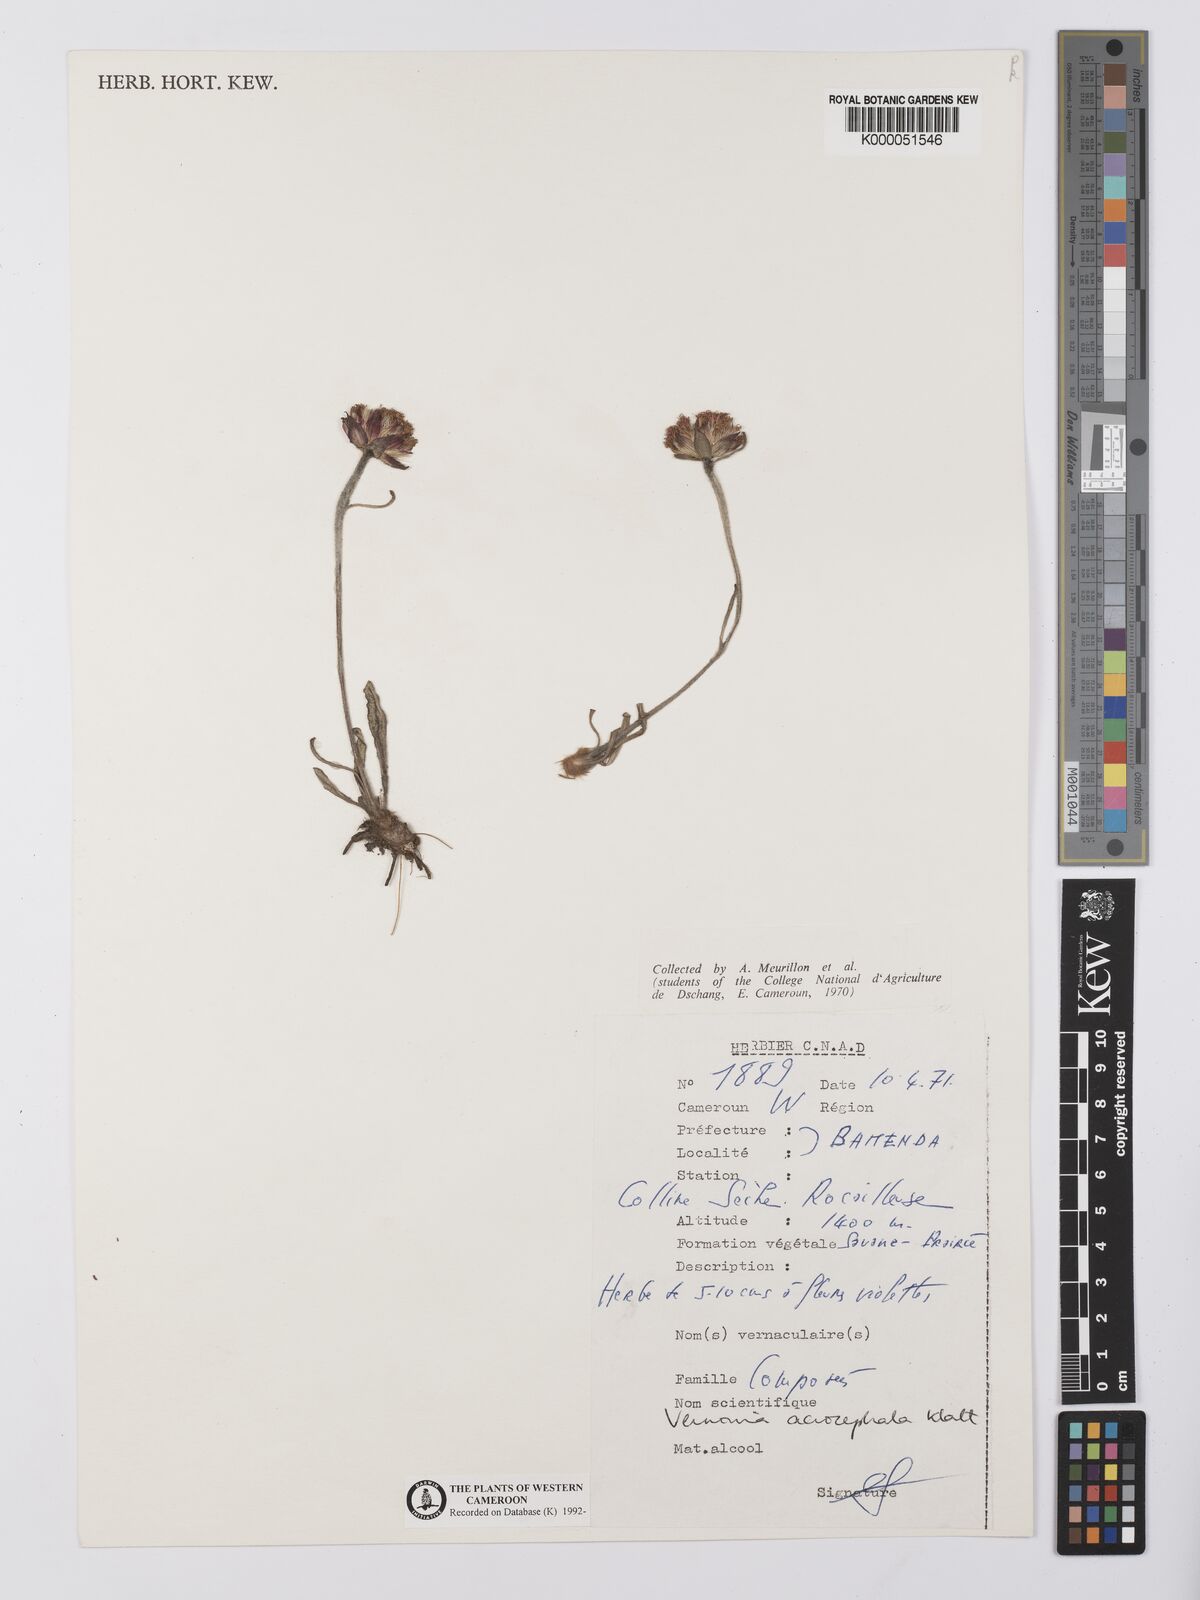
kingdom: Plantae
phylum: Tracheophyta
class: Magnoliopsida
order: Asterales
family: Asteraceae
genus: Vernonella
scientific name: Vernonella acrocephala
